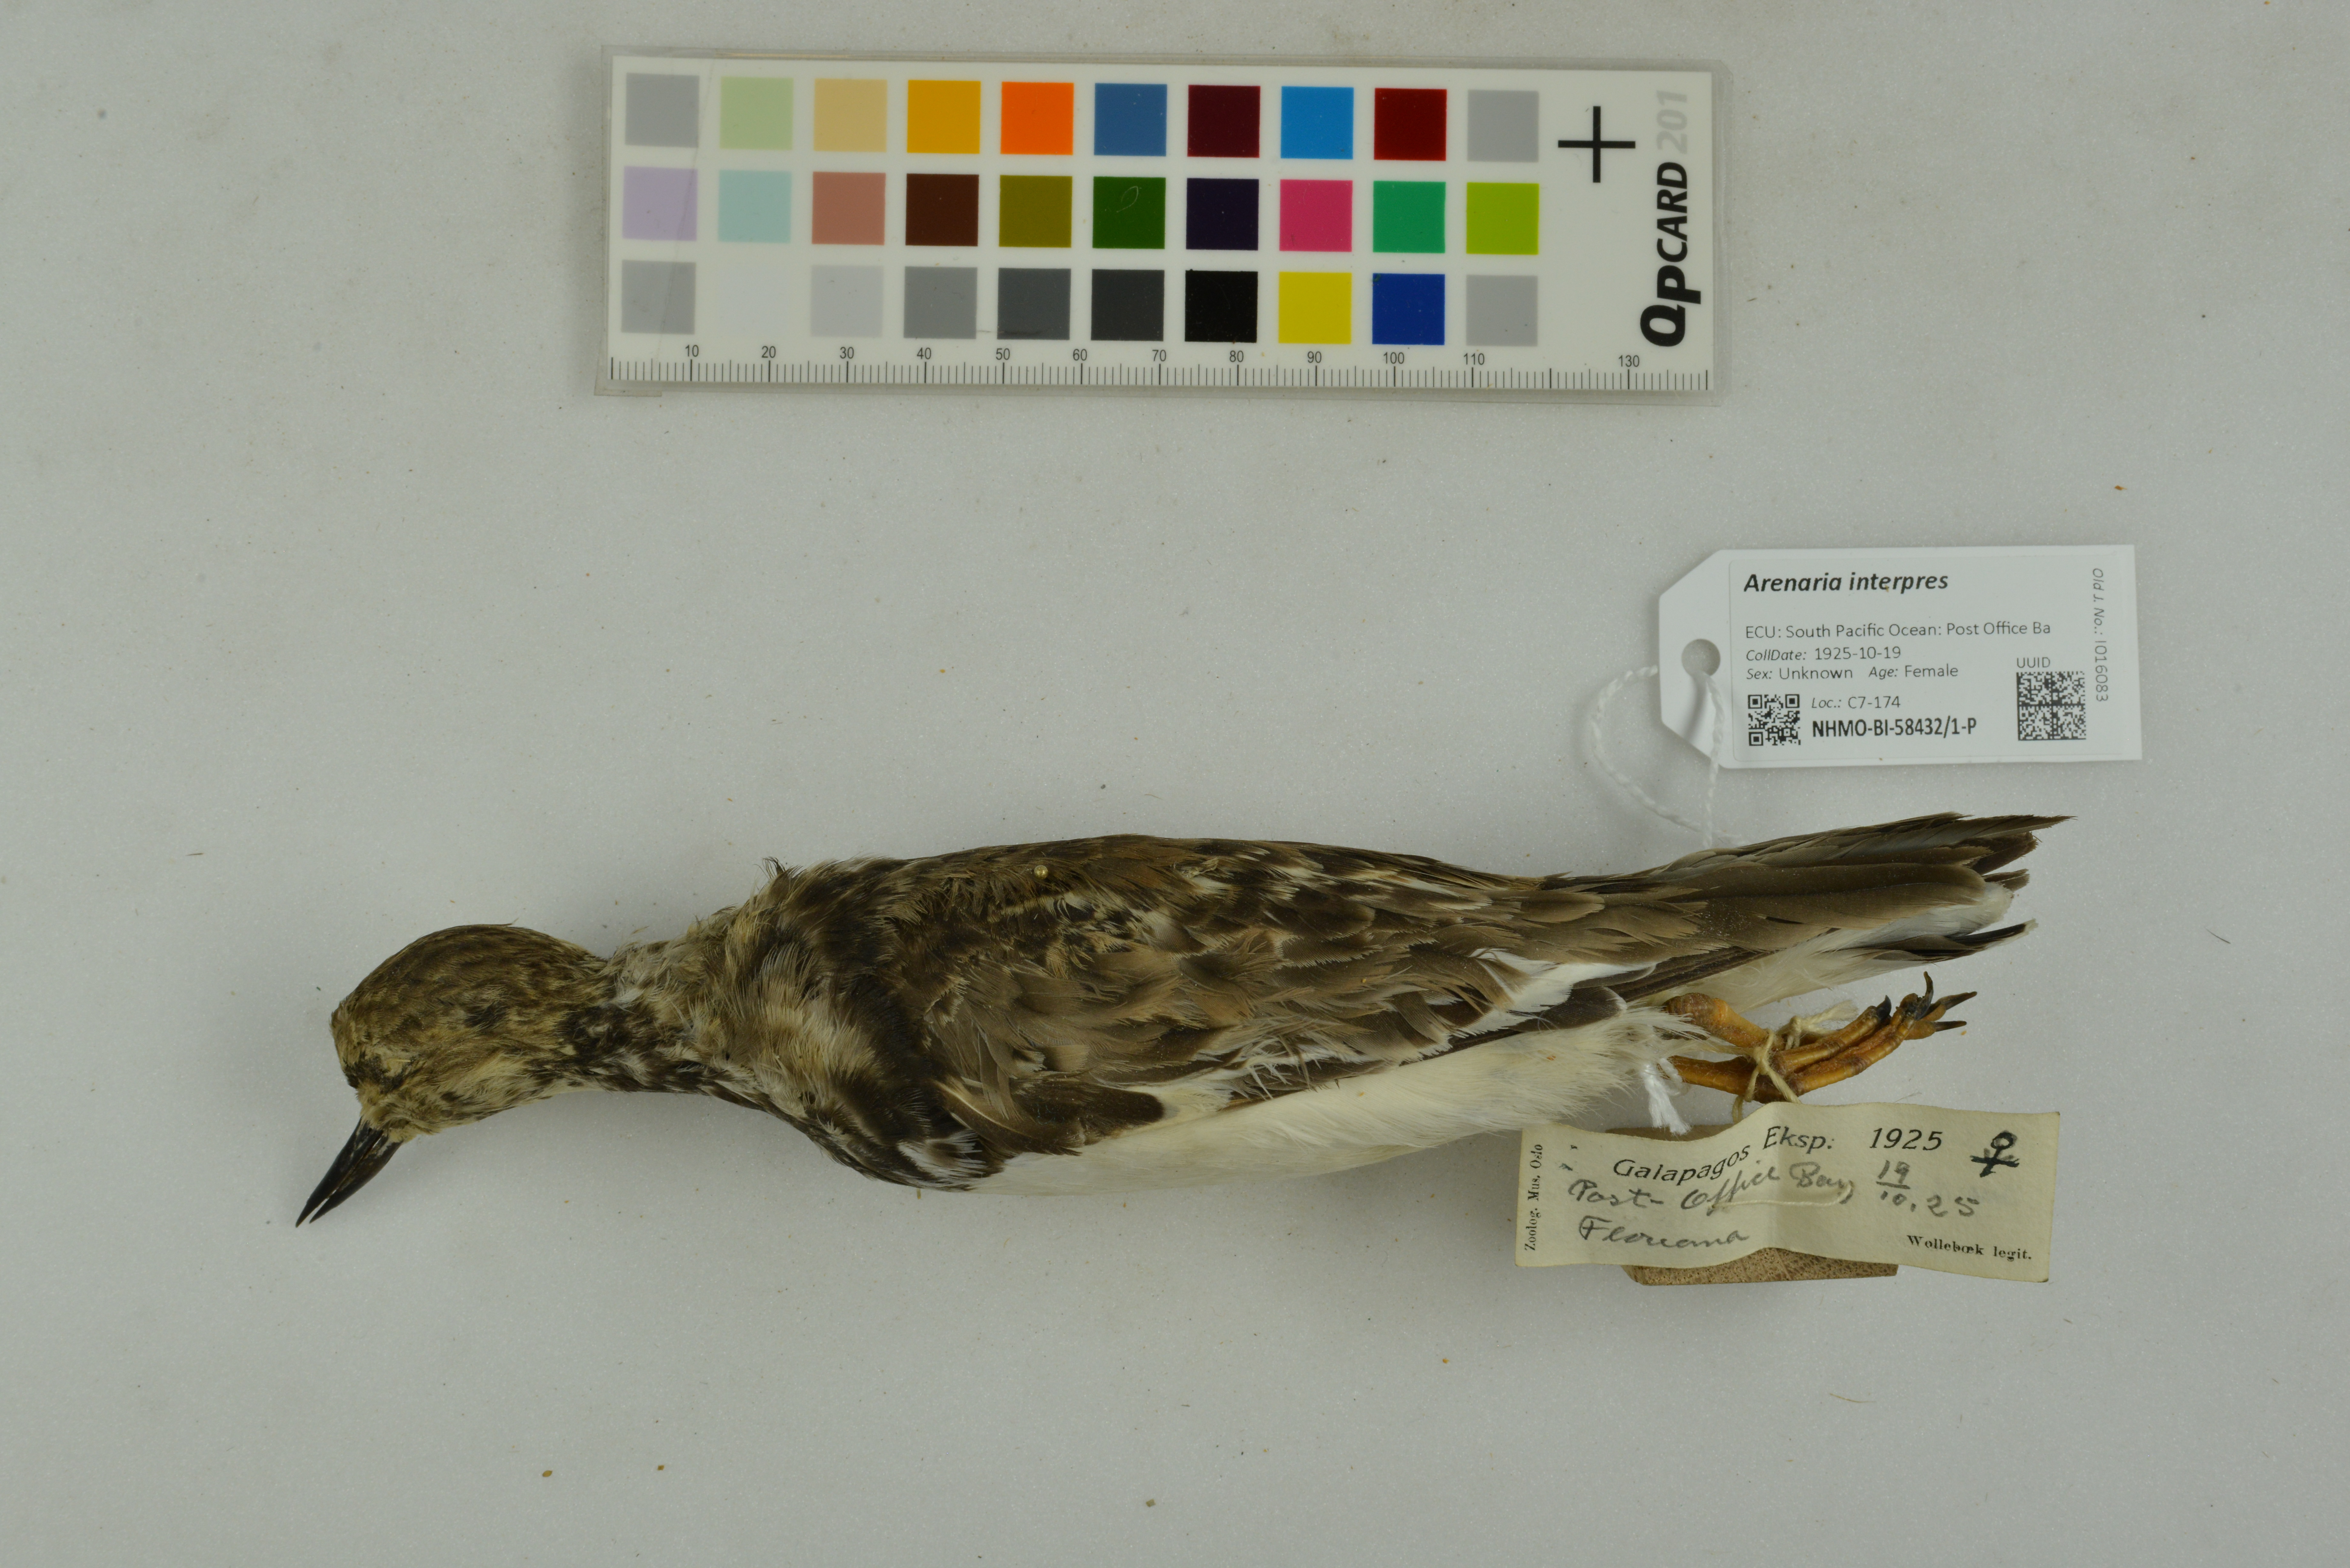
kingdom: Animalia
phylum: Chordata
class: Aves
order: Charadriiformes
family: Scolopacidae
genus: Arenaria
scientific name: Arenaria interpres
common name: Ruddy turnstone
